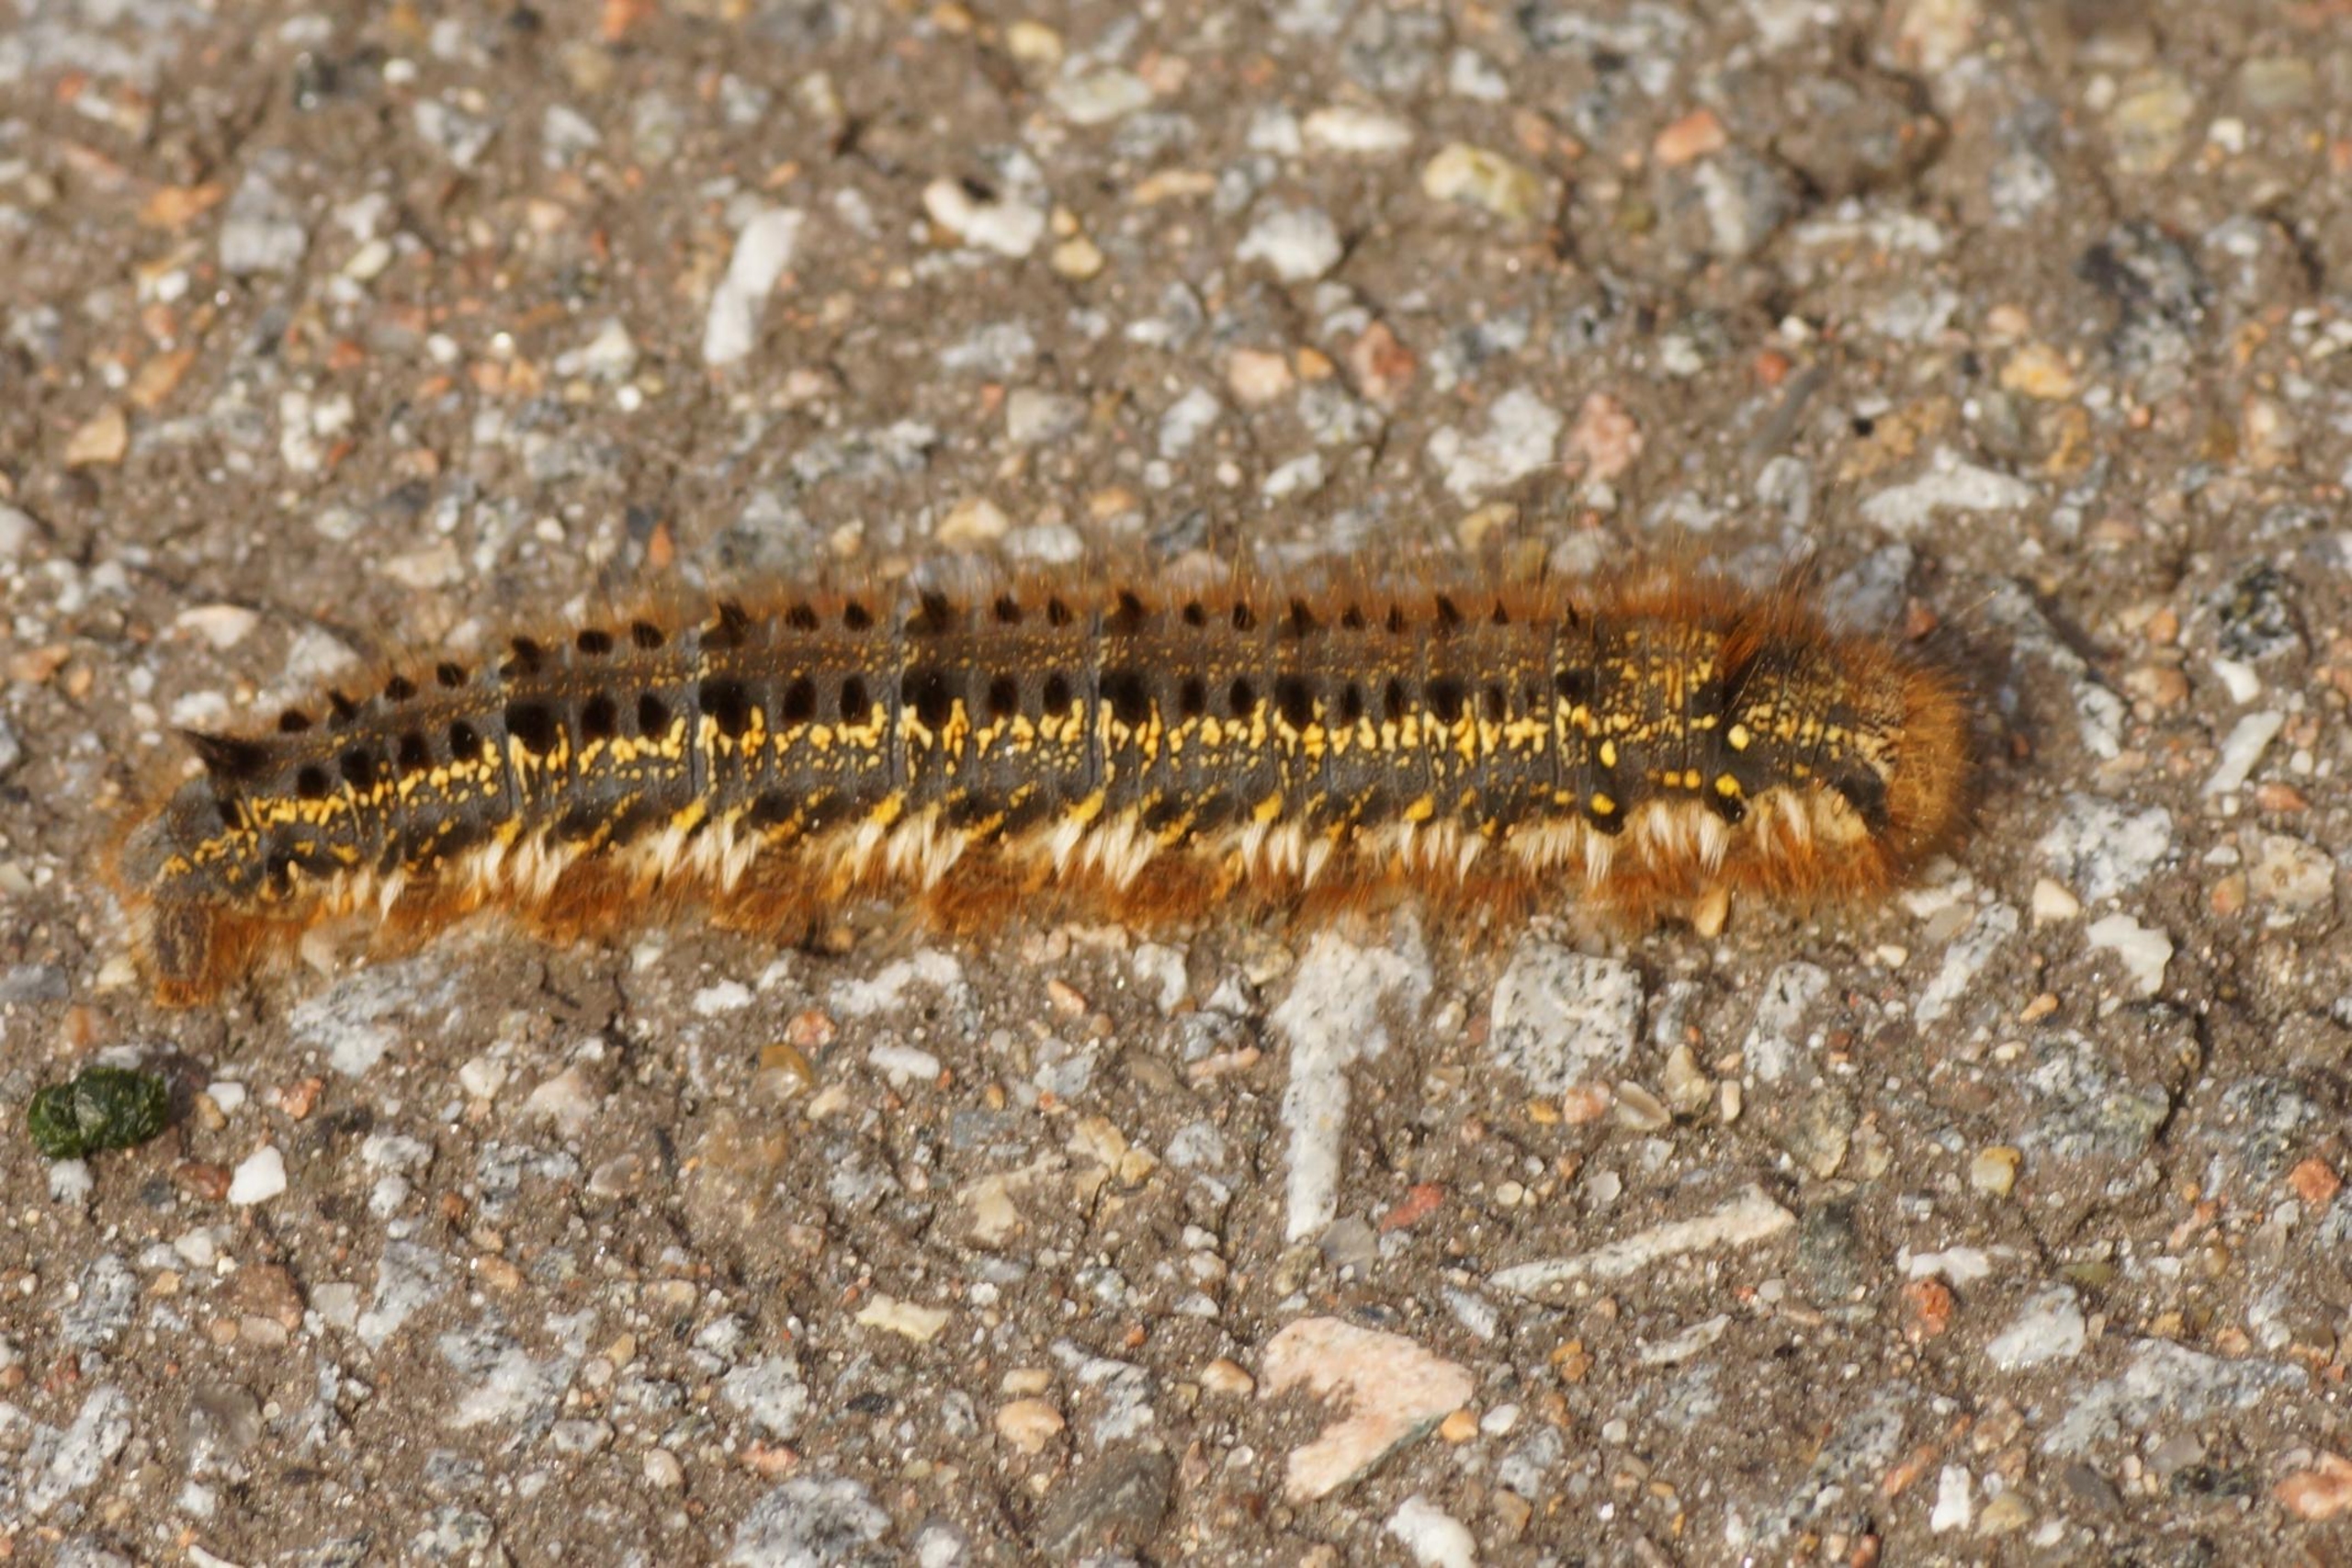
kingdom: Animalia
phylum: Arthropoda
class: Insecta
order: Lepidoptera
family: Lasiocampidae
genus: Euthrix
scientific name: Euthrix potatoria
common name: Græsspinder
